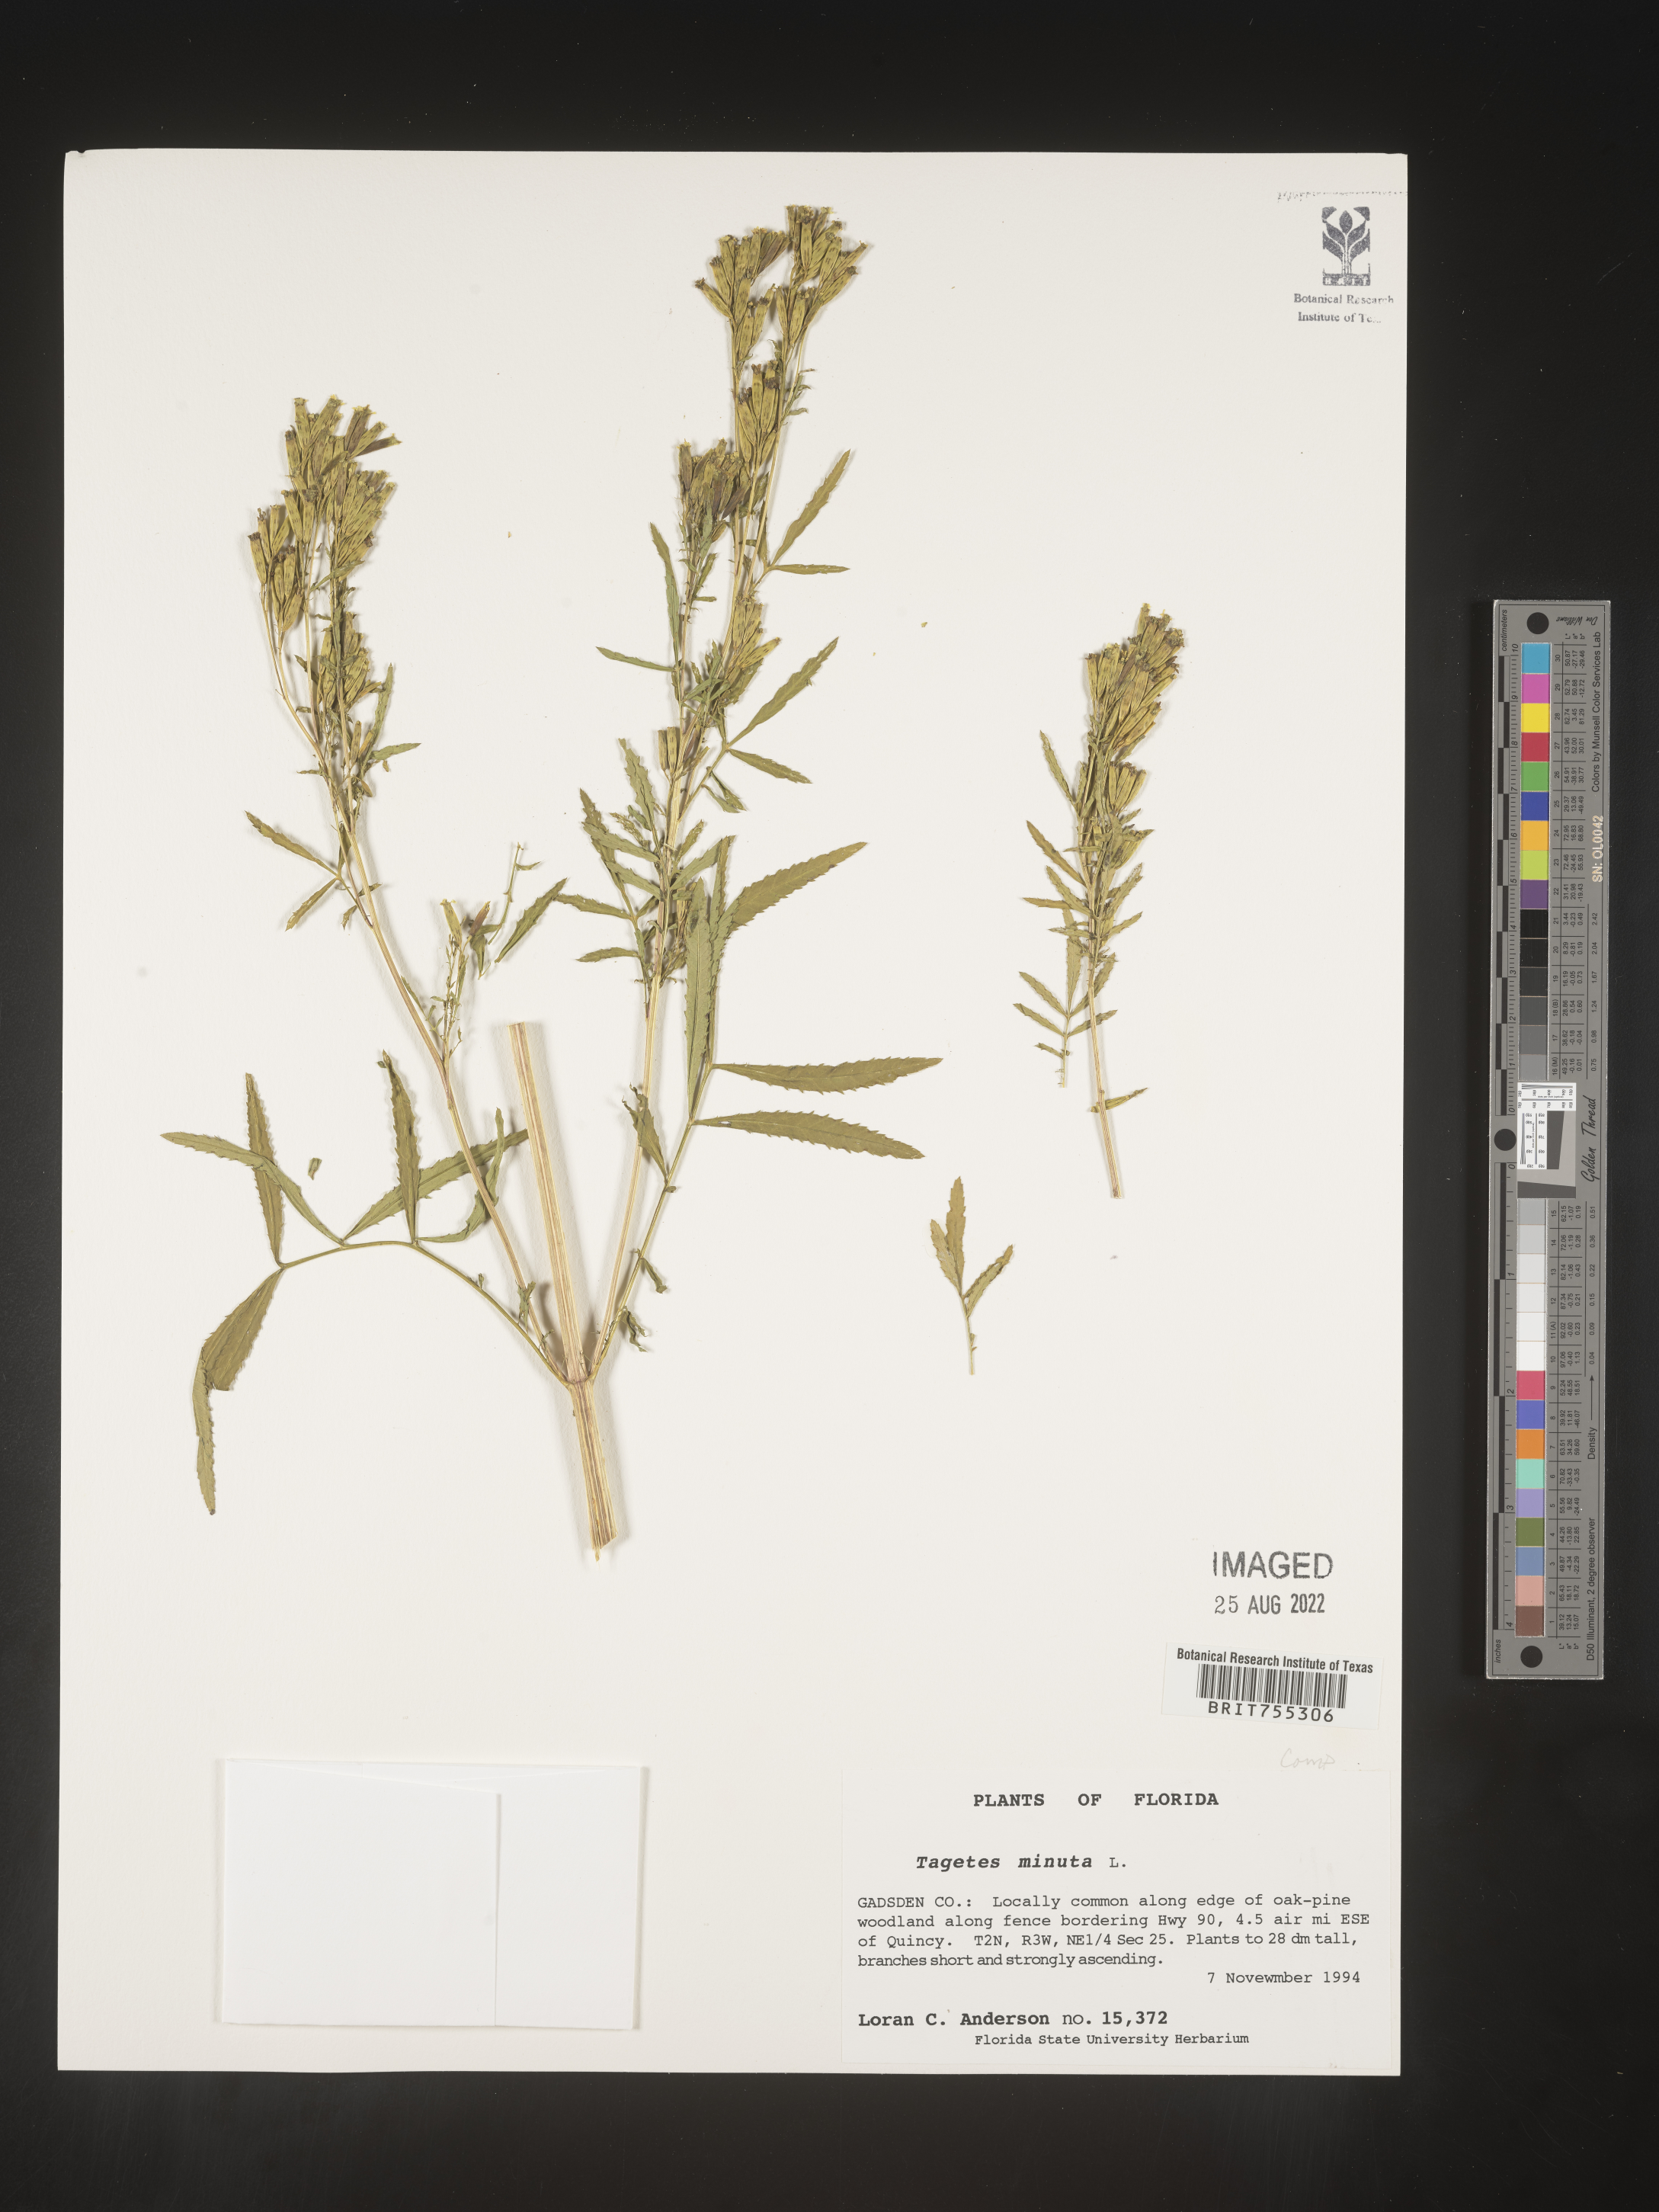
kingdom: Plantae
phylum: Tracheophyta
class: Magnoliopsida
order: Asterales
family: Asteraceae
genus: Tagetes
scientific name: Tagetes
